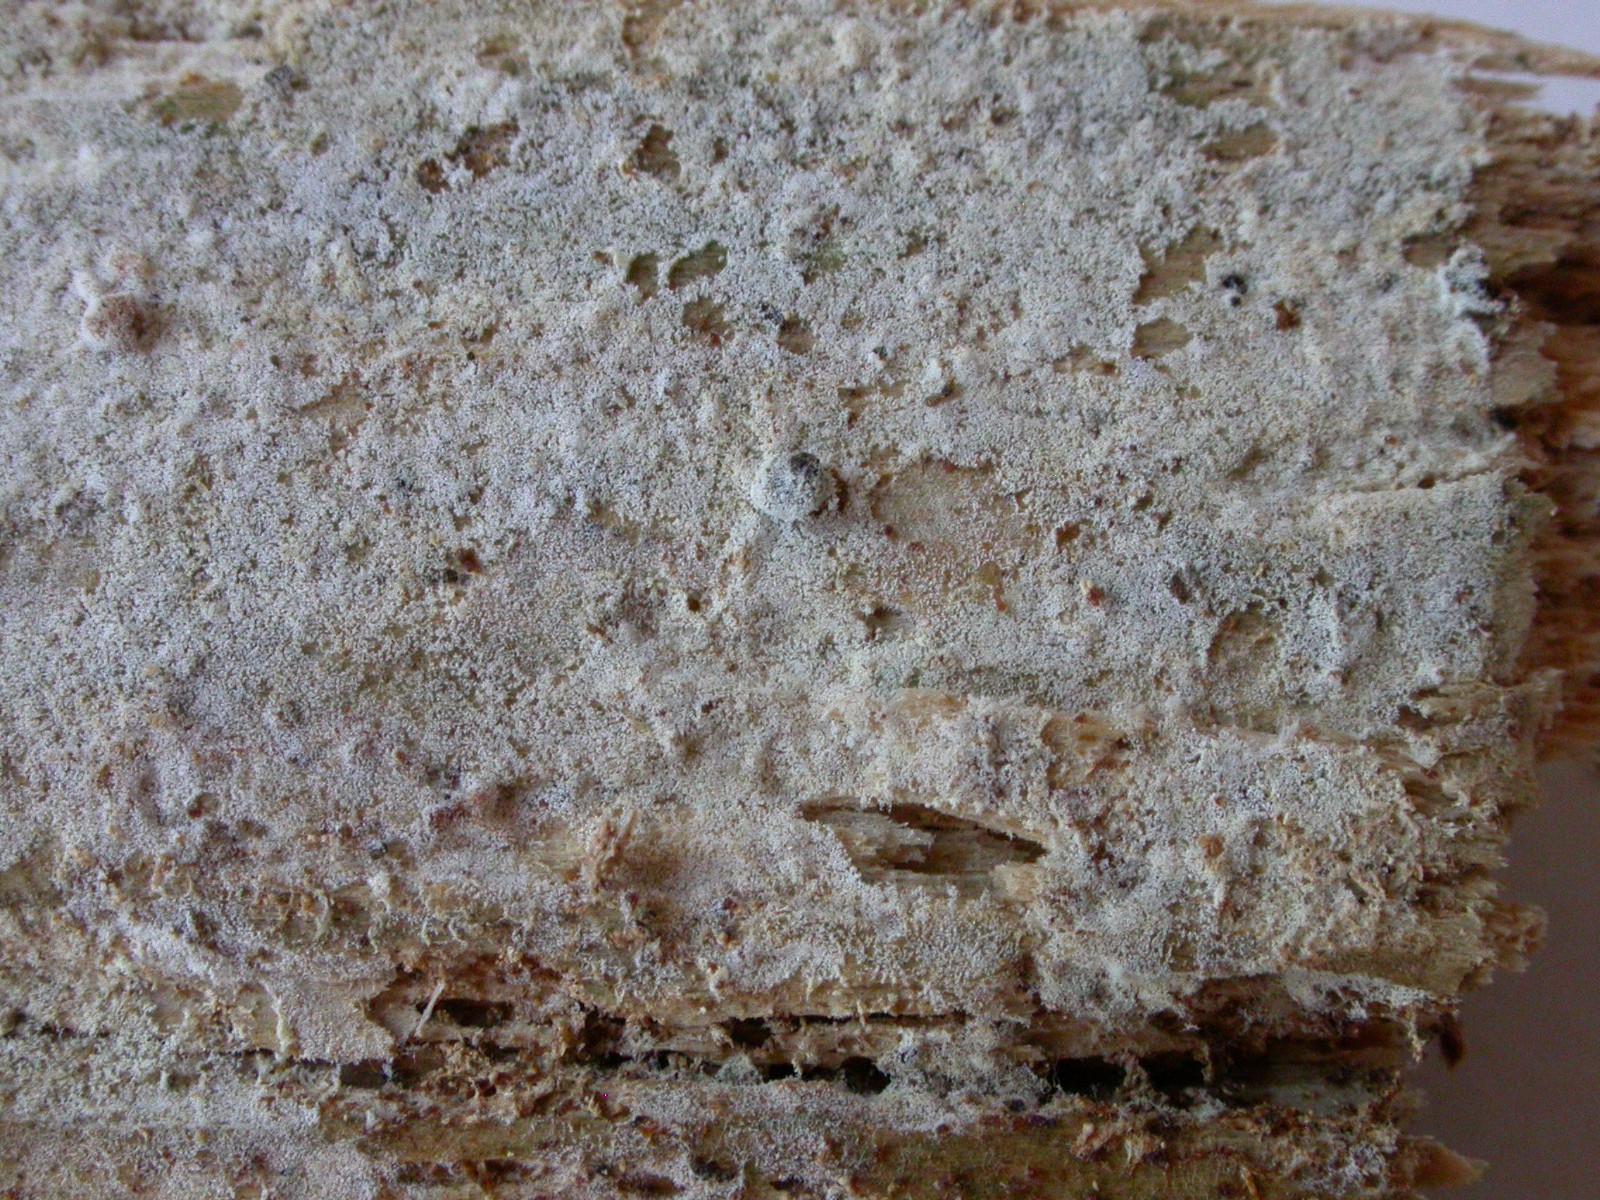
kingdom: Fungi
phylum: Basidiomycota
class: Agaricomycetes
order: Cantharellales
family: Botryobasidiaceae
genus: Botryobasidium
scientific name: Botryobasidium laeve
